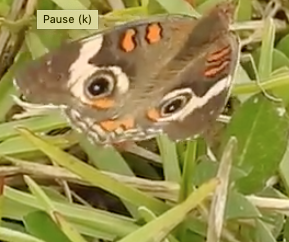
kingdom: Animalia
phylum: Arthropoda
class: Insecta
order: Lepidoptera
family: Nymphalidae
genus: Junonia
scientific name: Junonia coenia
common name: Common Buckeye
